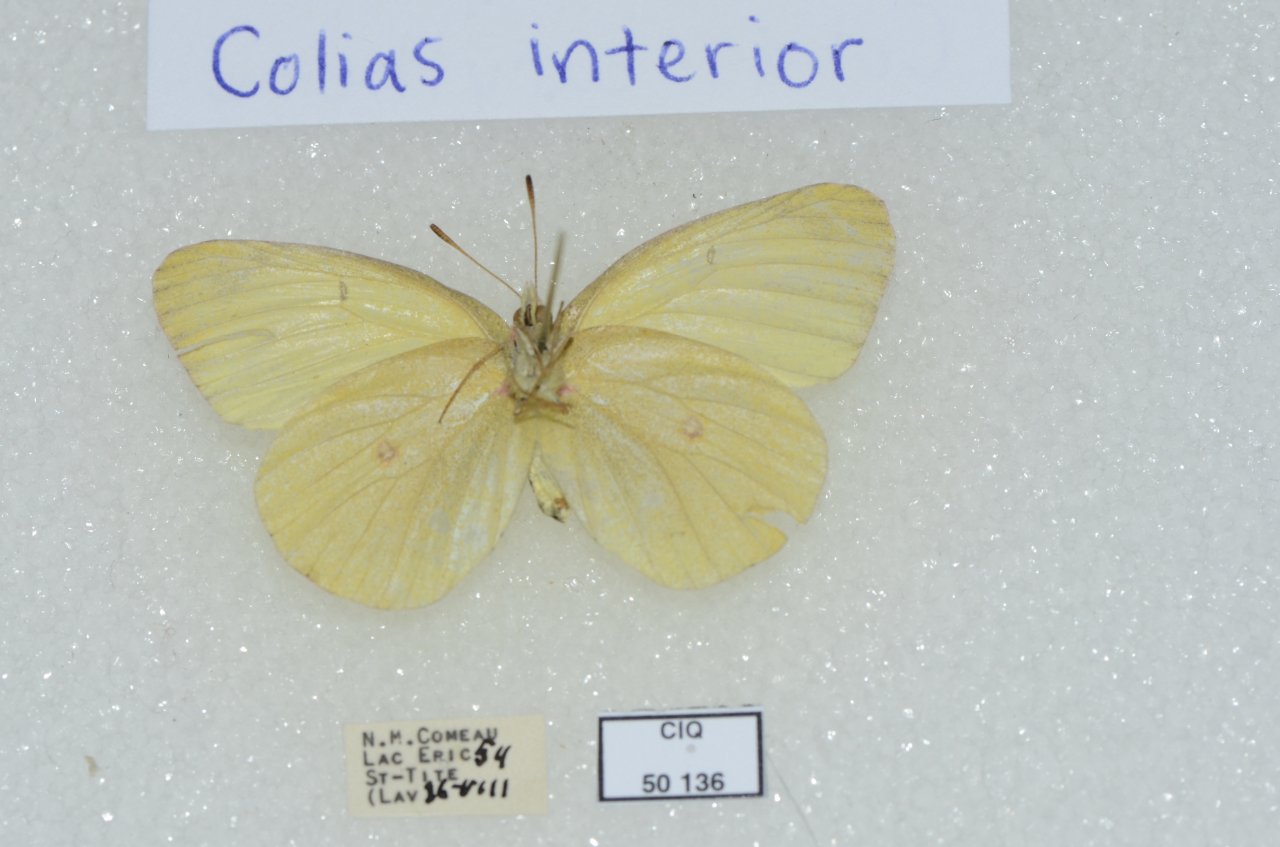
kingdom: Animalia
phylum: Arthropoda
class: Insecta
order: Lepidoptera
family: Pieridae
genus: Colias
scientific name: Colias interior
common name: Pink-edged Sulphur
